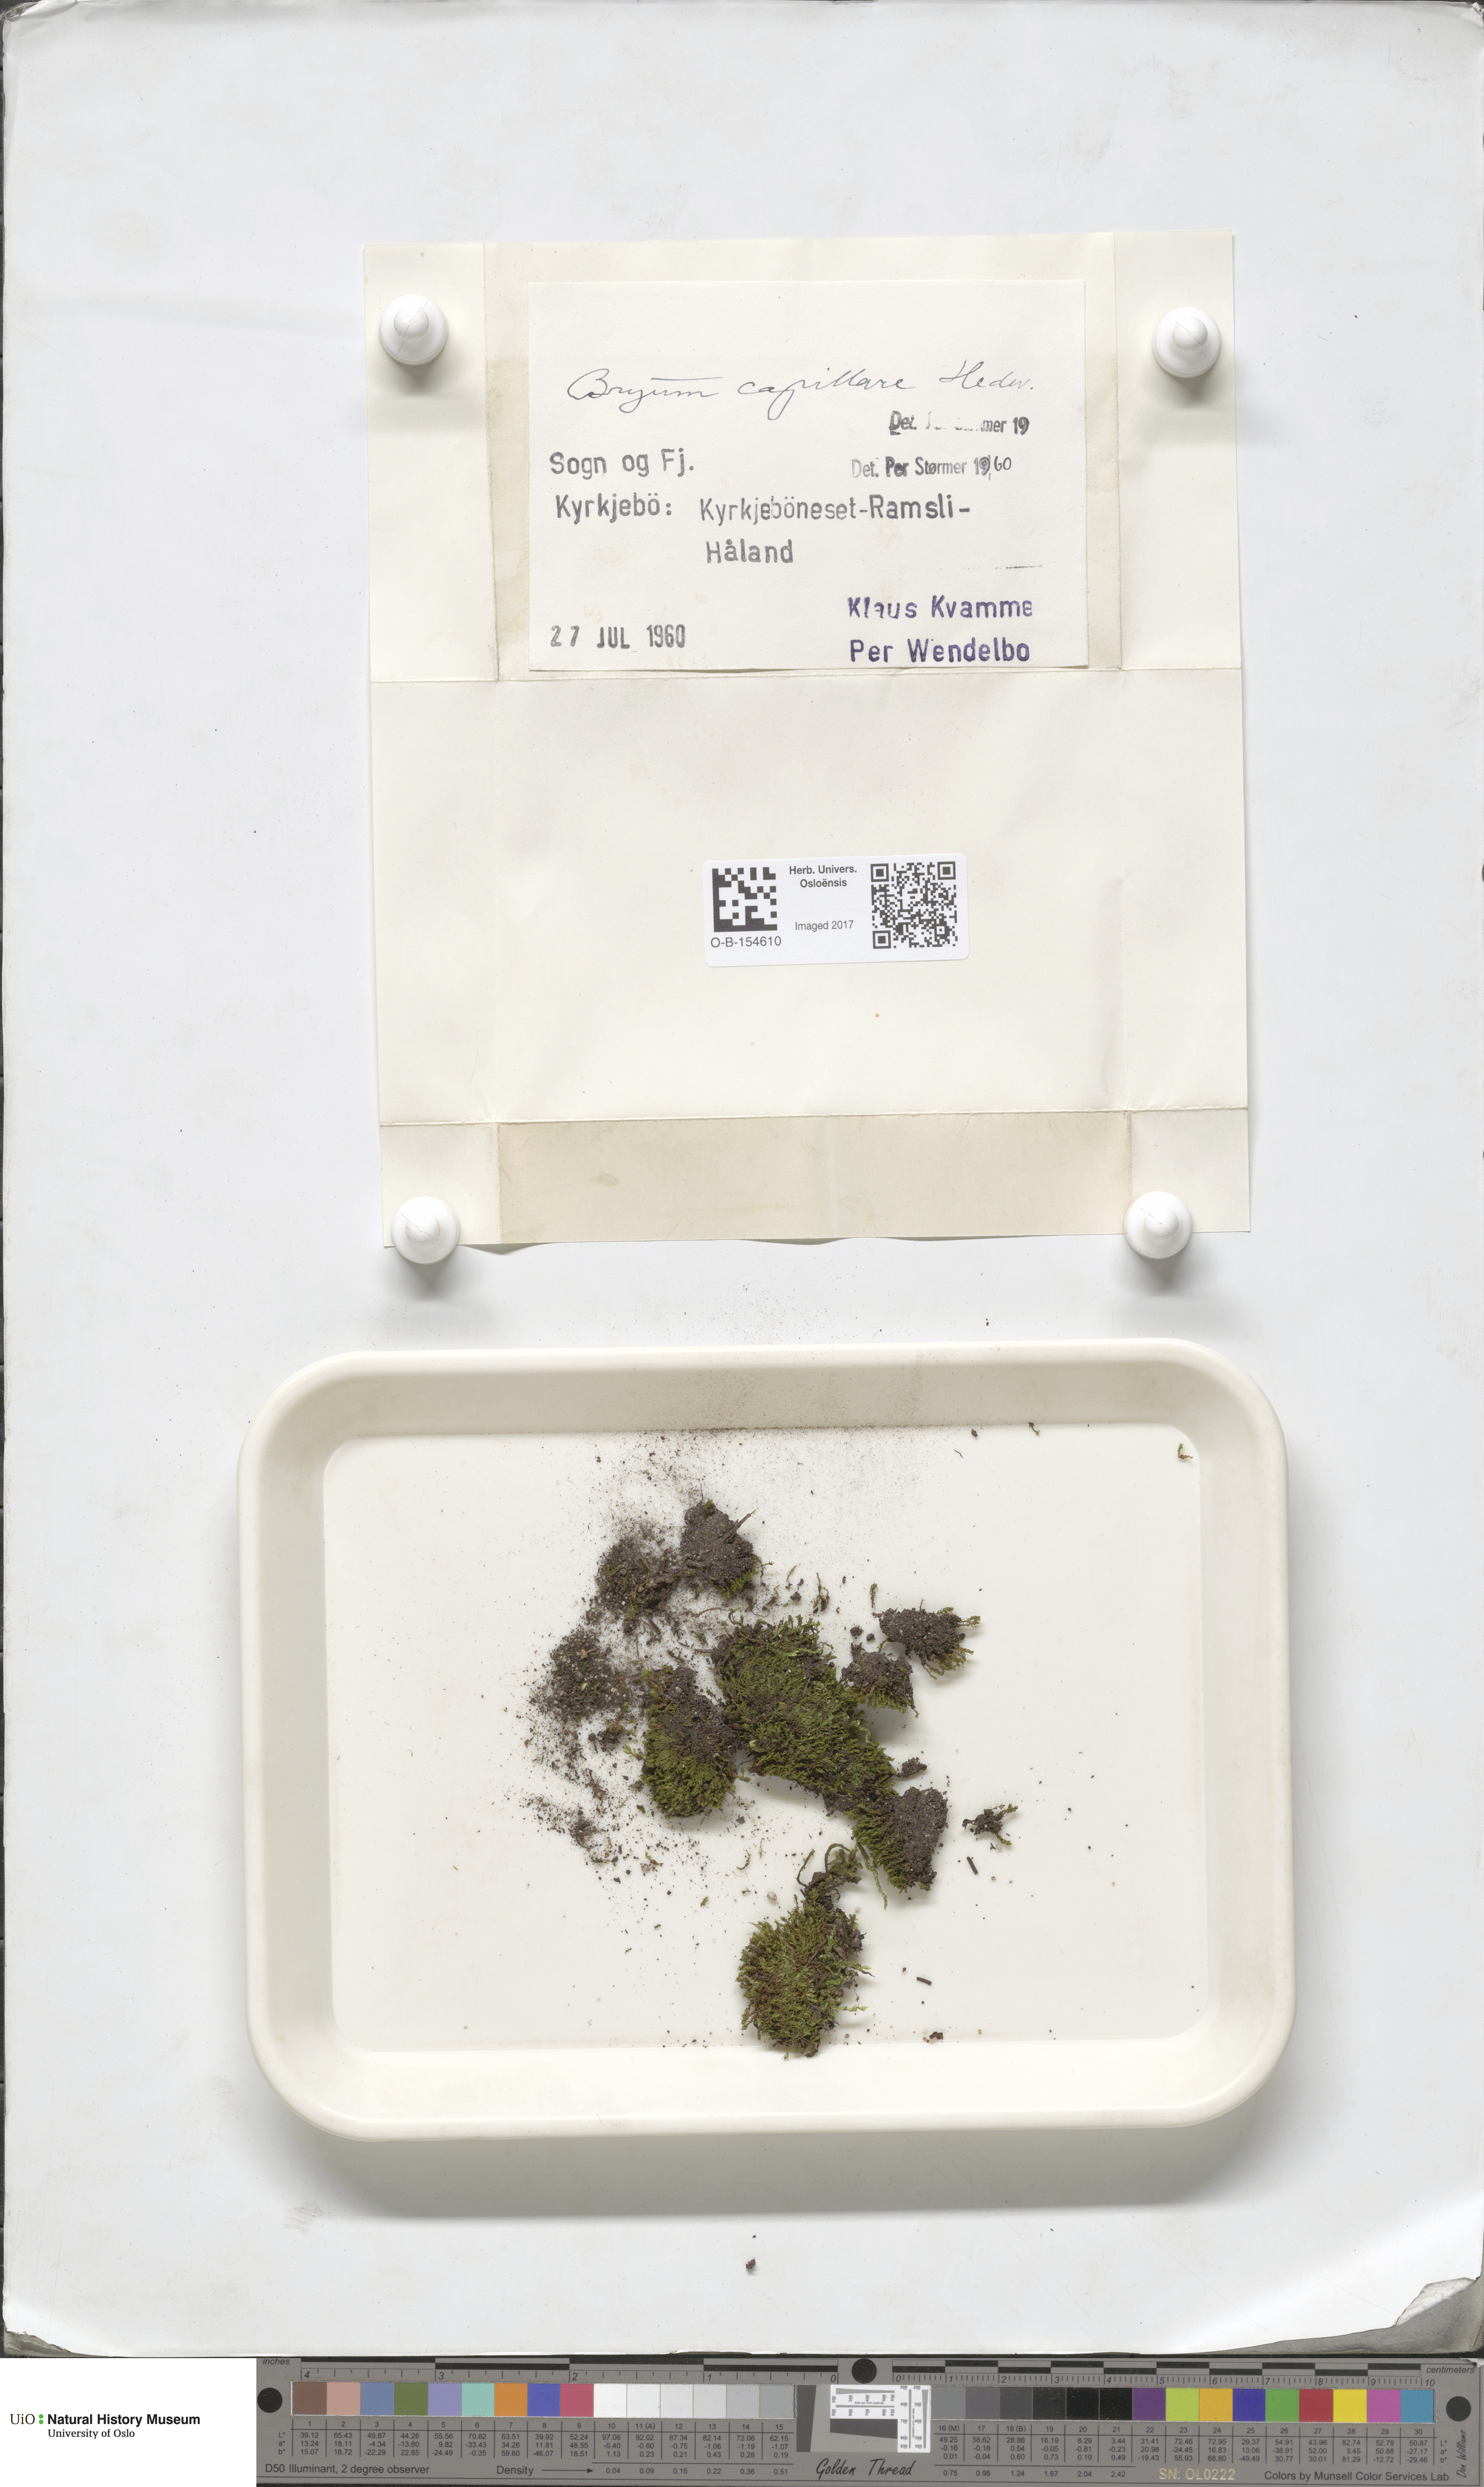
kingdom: Plantae
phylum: Bryophyta
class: Bryopsida
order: Bryales
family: Bryaceae
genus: Rosulabryum
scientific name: Rosulabryum capillare
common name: Capillary thread-moss
